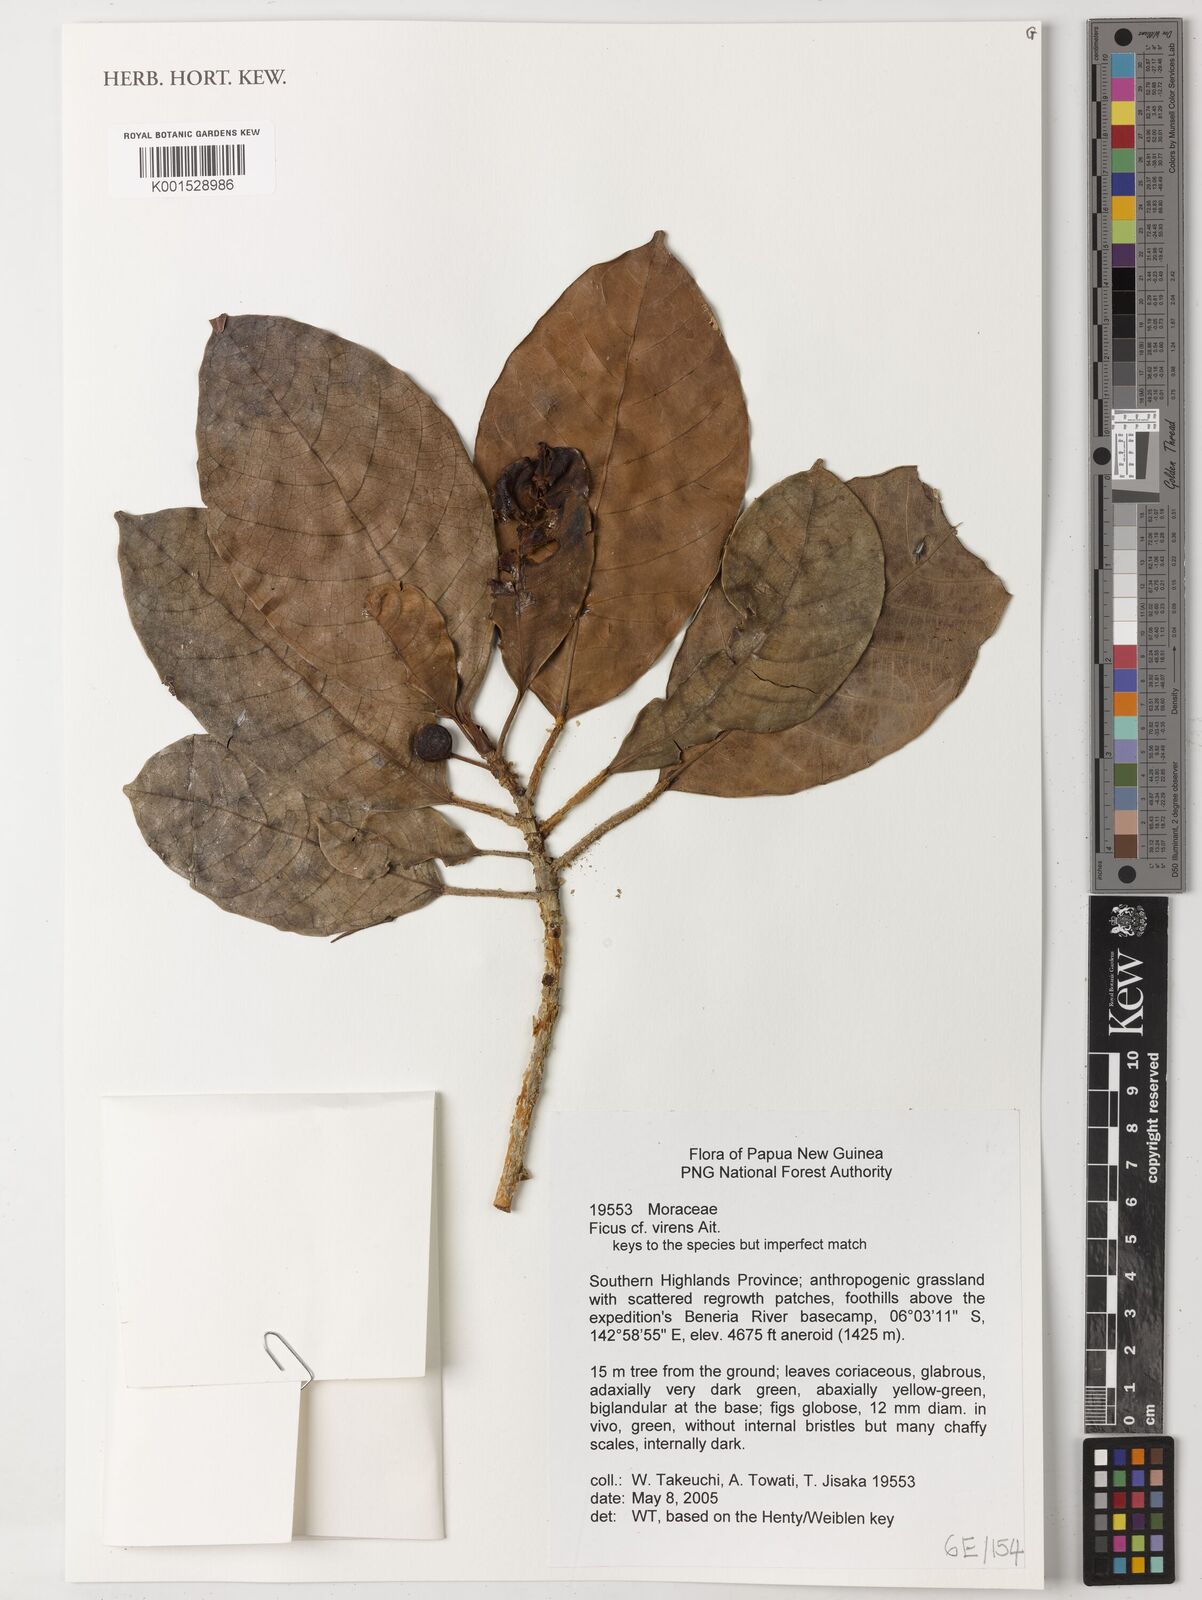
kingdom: Plantae
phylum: Tracheophyta
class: Magnoliopsida
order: Rosales
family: Moraceae
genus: Ficus
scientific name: Ficus virens
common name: Spotted fig
